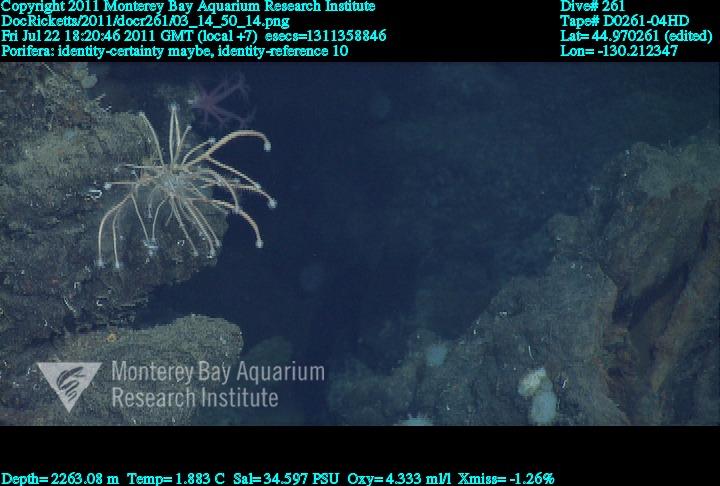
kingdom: Animalia
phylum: Porifera
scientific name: Porifera
